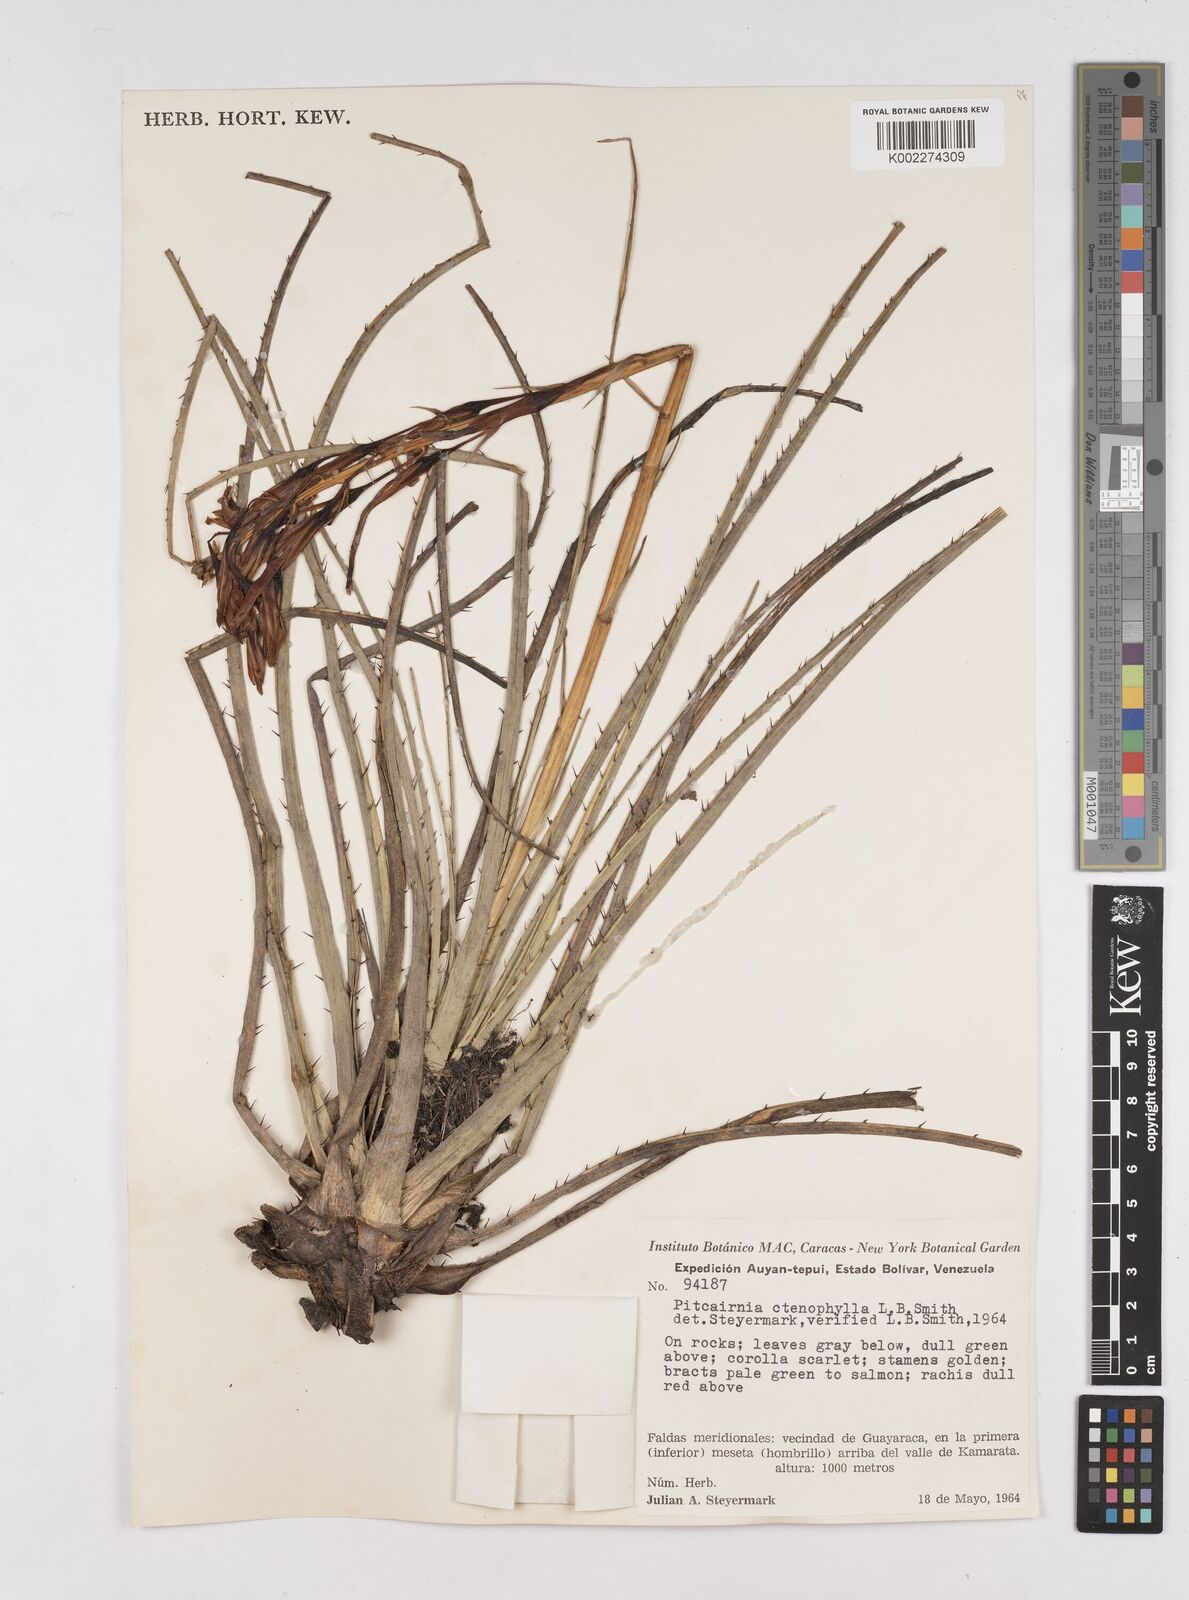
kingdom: Plantae
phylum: Tracheophyta
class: Liliopsida
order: Poales
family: Bromeliaceae
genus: Pitcairnia
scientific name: Pitcairnia ctenophylla
